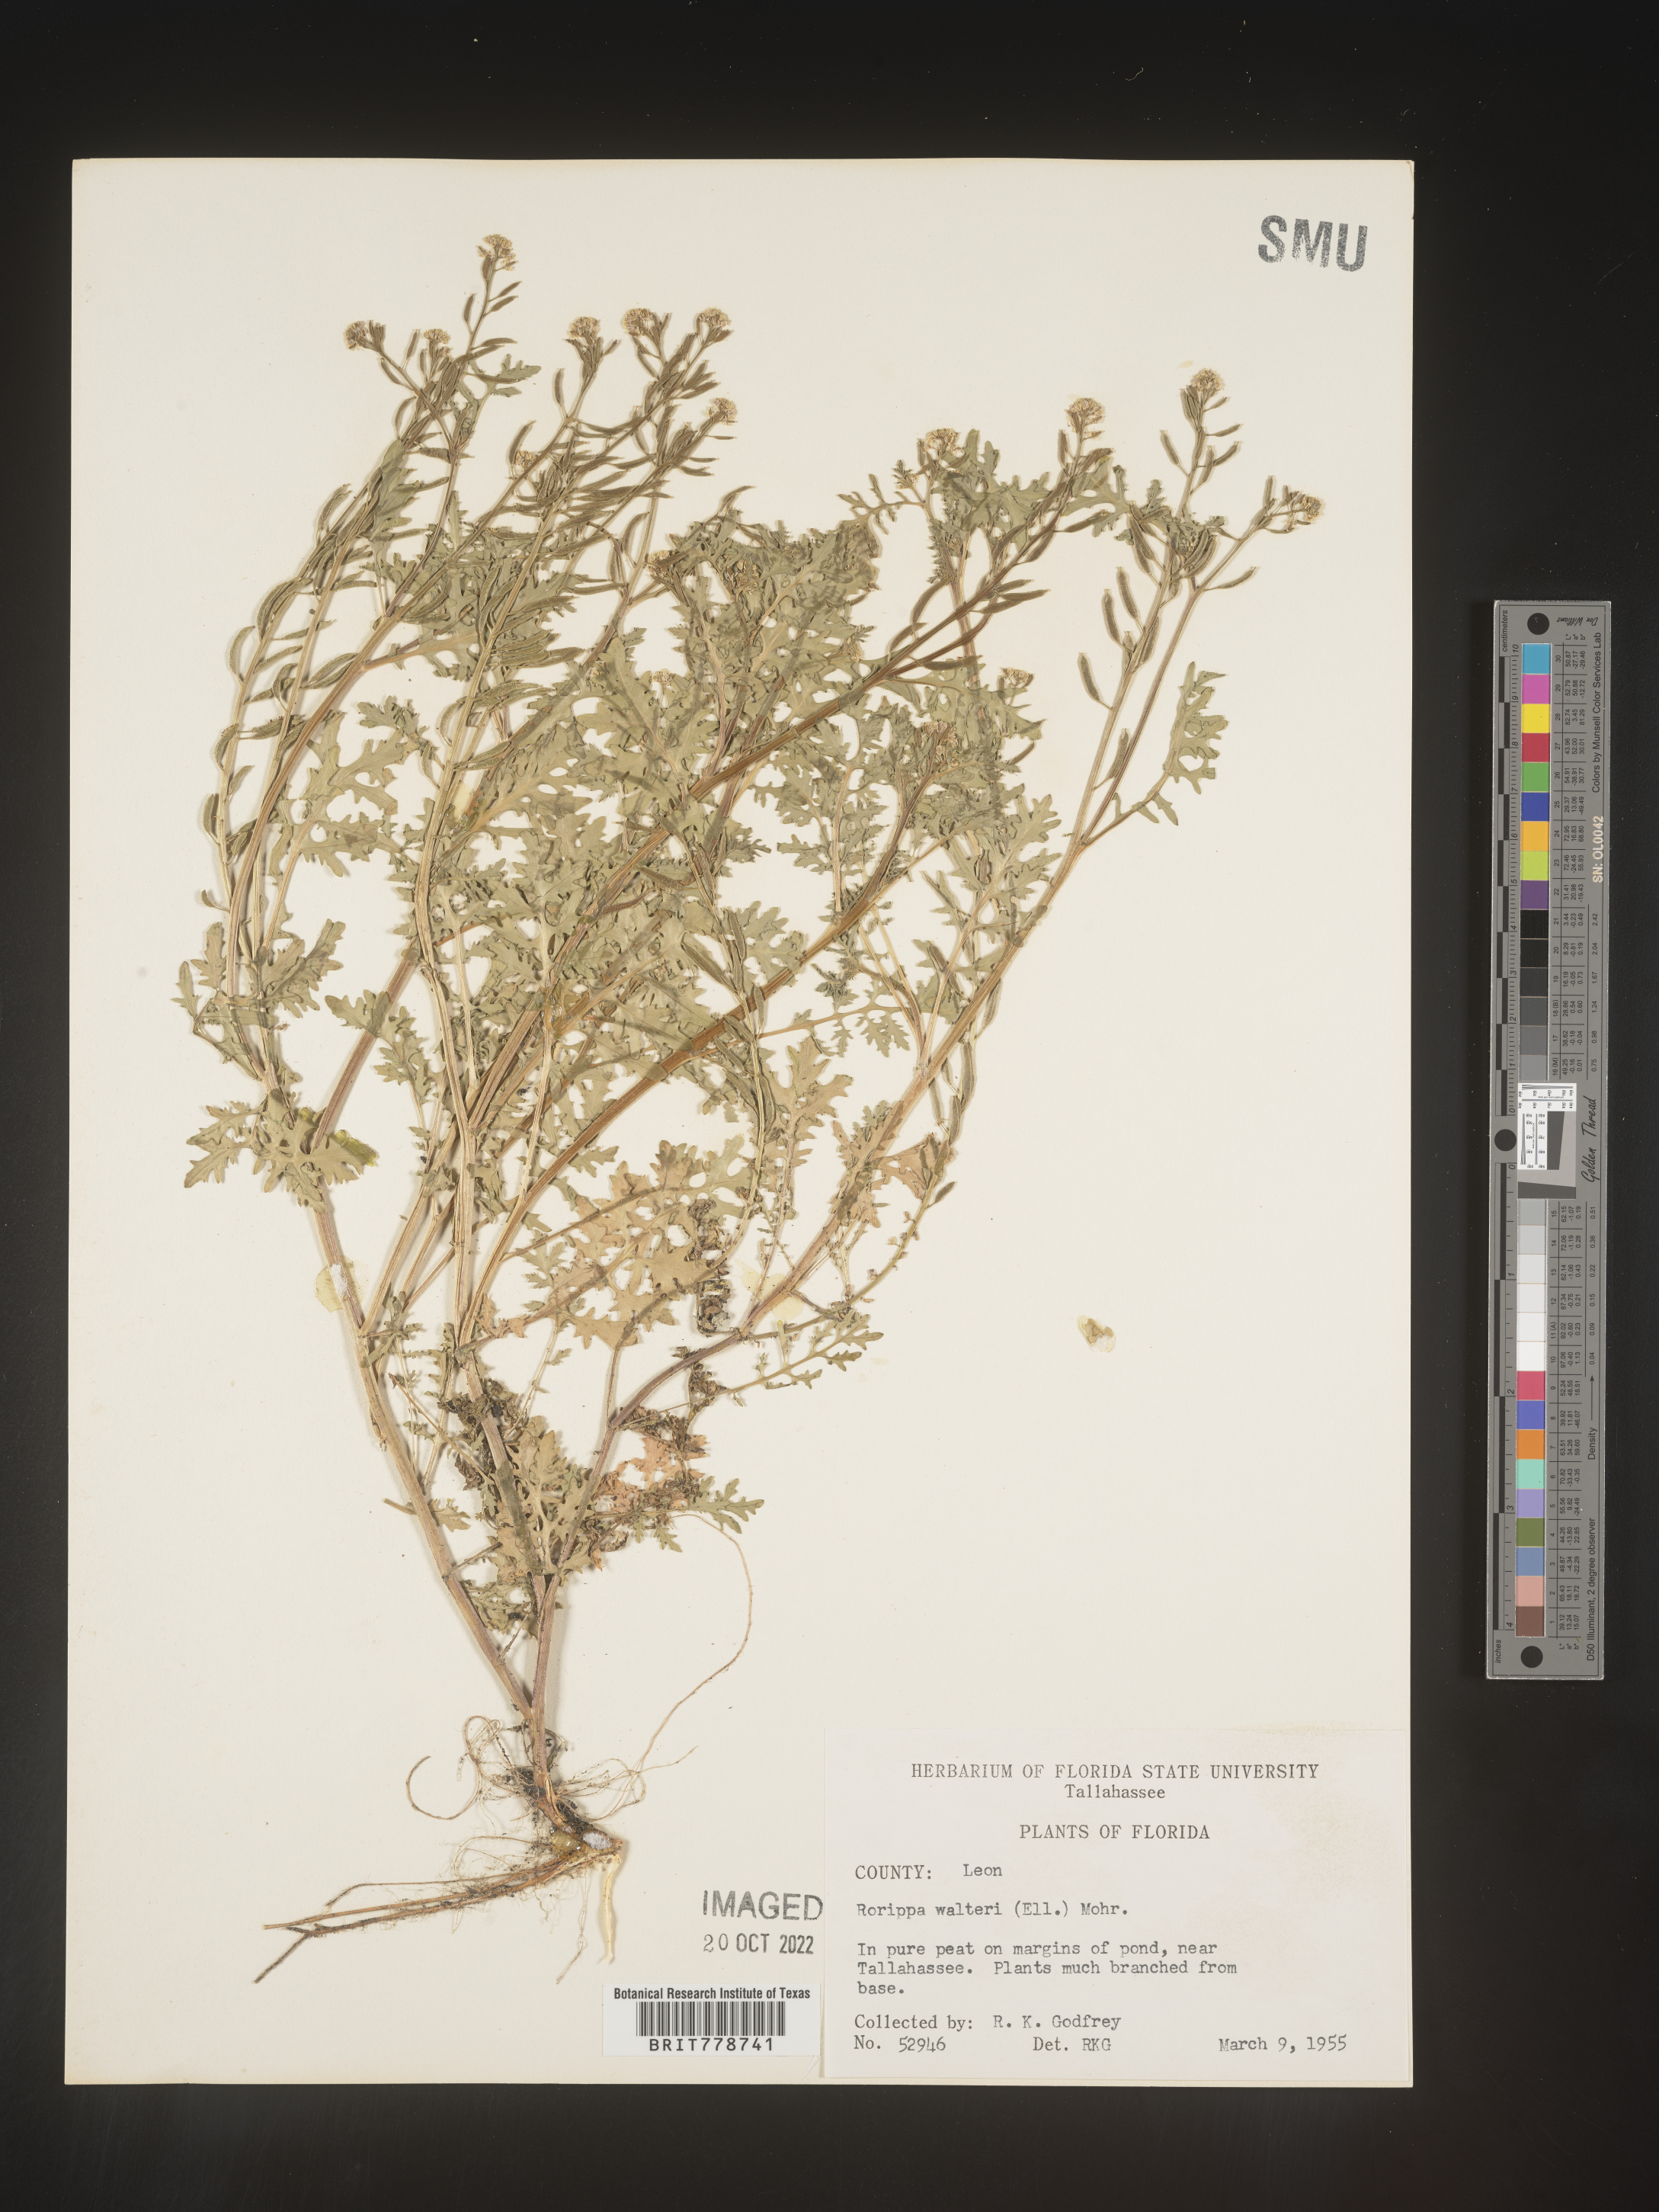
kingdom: Plantae
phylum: Tracheophyta
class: Magnoliopsida
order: Brassicales
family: Brassicaceae
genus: Rorippa
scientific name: Rorippa teres
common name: Southern marsh yellowcress
